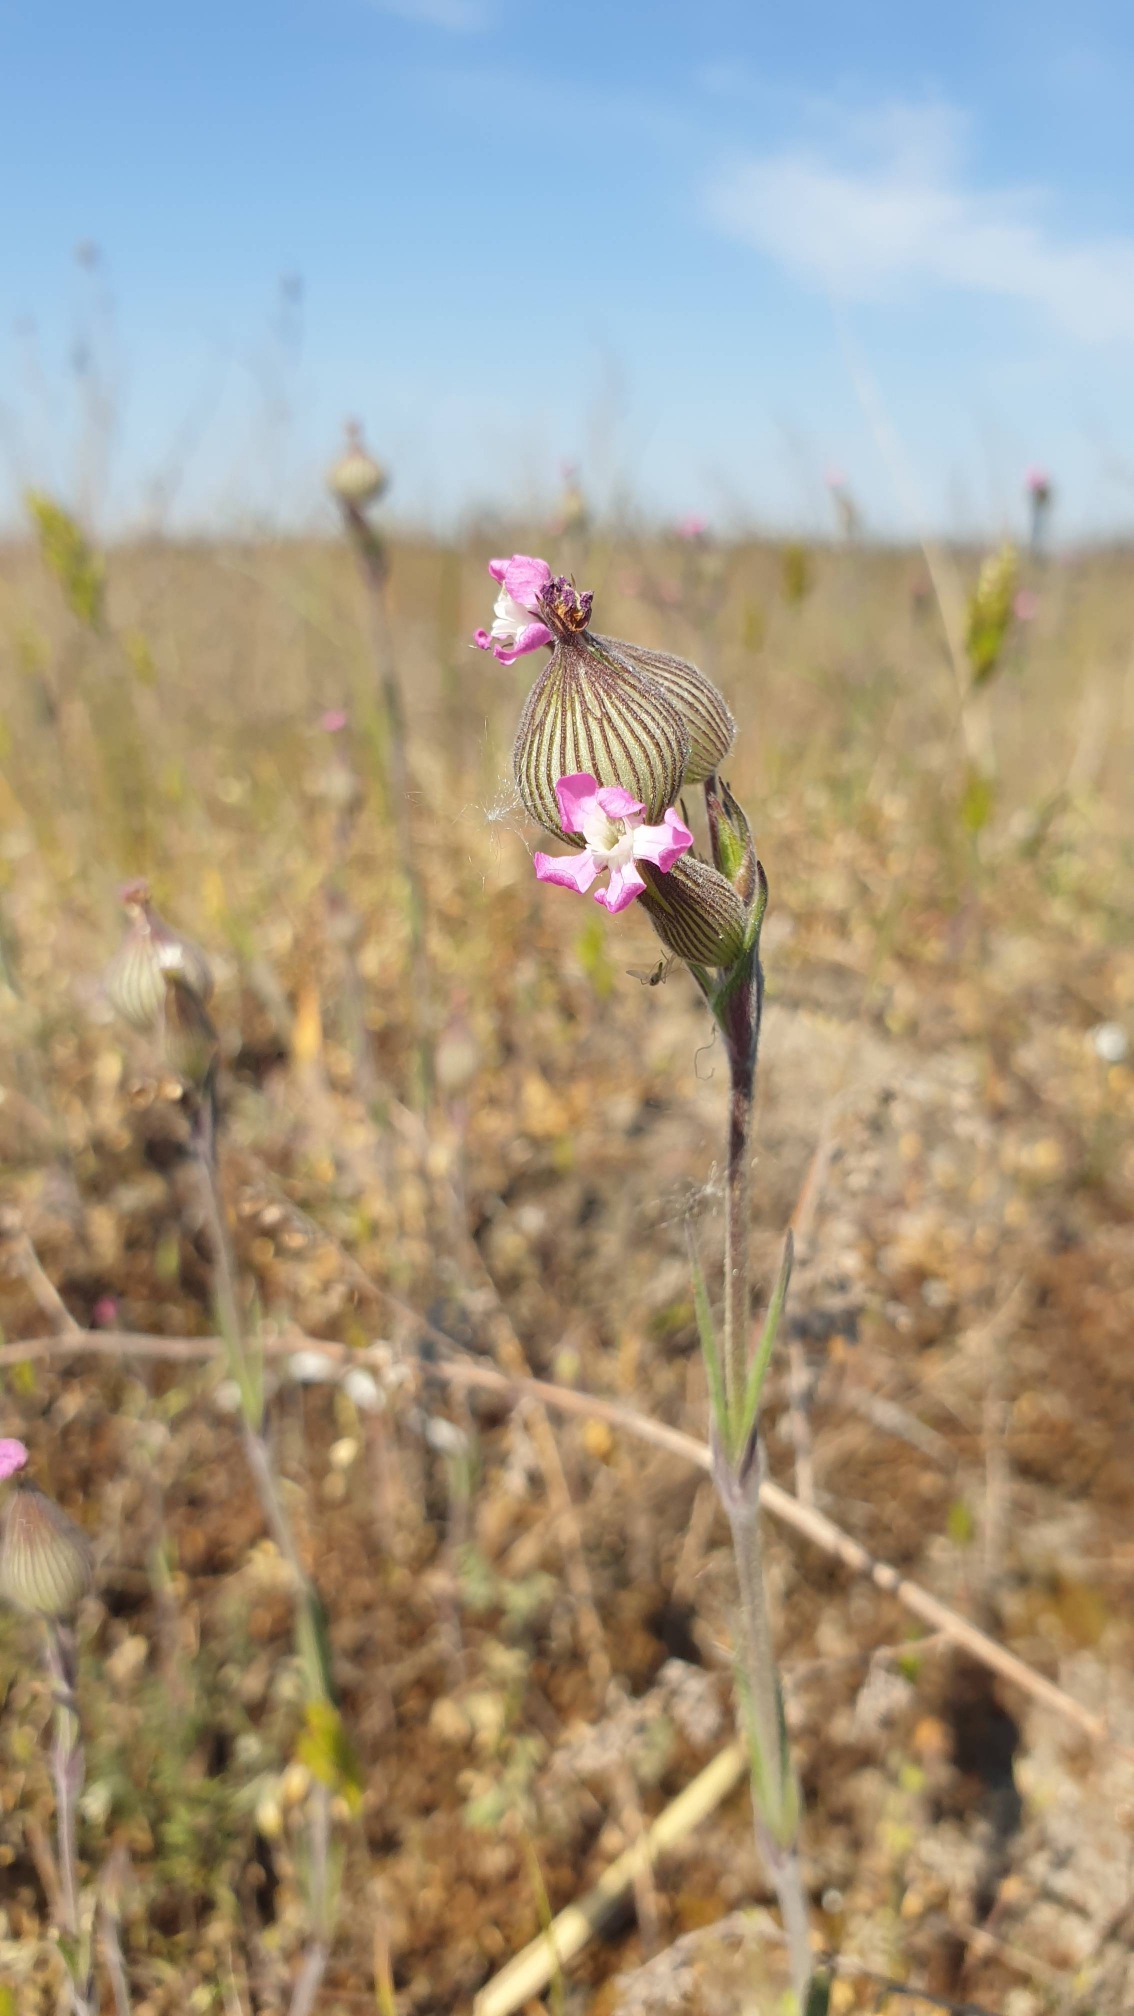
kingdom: Plantae
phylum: Tracheophyta
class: Magnoliopsida
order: Caryophyllales
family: Caryophyllaceae
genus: Silene
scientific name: Silene conica
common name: Kegle-limurt
